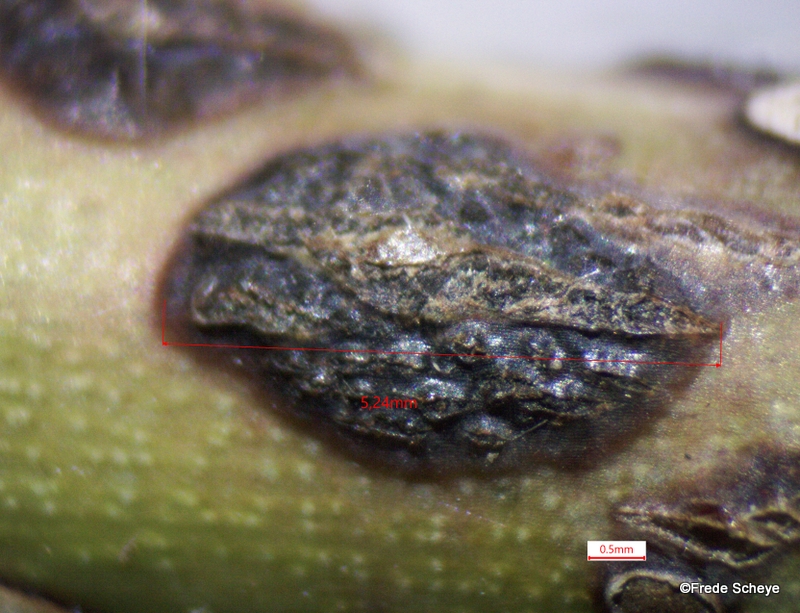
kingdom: Fungi
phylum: Ascomycota
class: Dothideomycetes
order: Botryosphaeriales
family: Botryosphaeriaceae
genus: Botryosphaeria
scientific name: Botryosphaeria dothidea
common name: Asteromyia gall midge fungus
